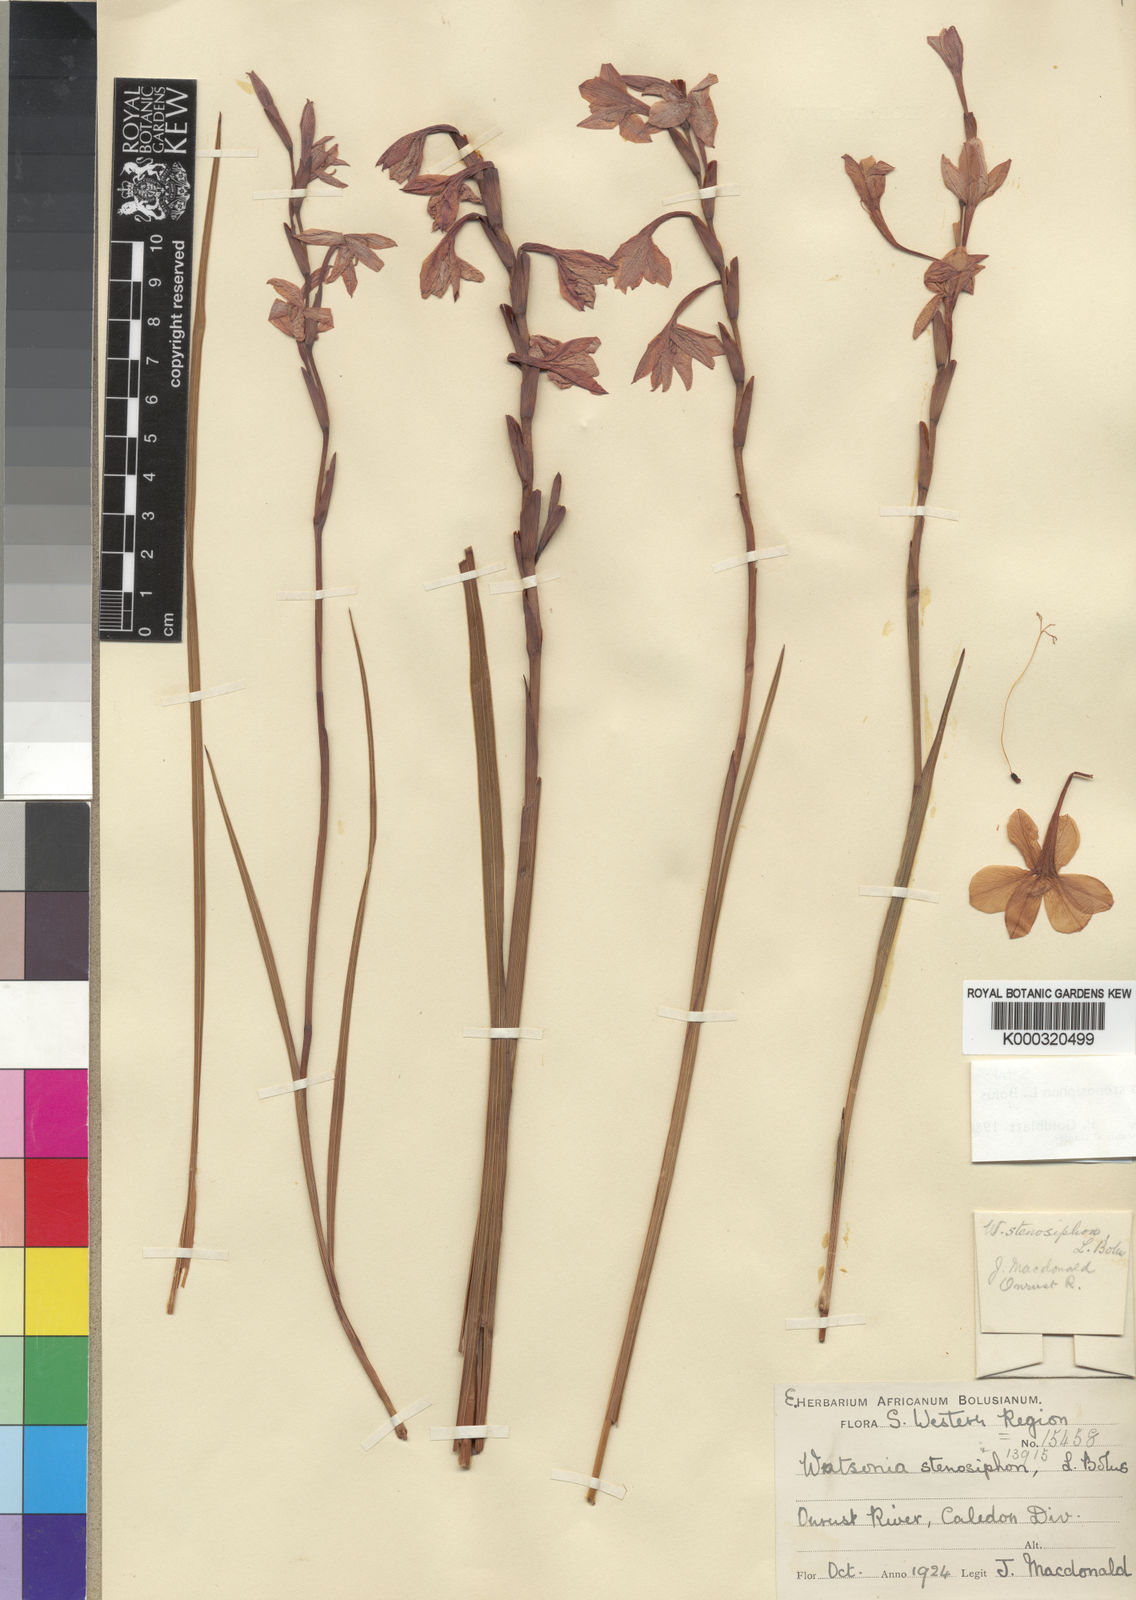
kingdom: Plantae
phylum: Tracheophyta
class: Liliopsida
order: Asparagales
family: Iridaceae
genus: Watsonia
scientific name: Watsonia stenosiphon
